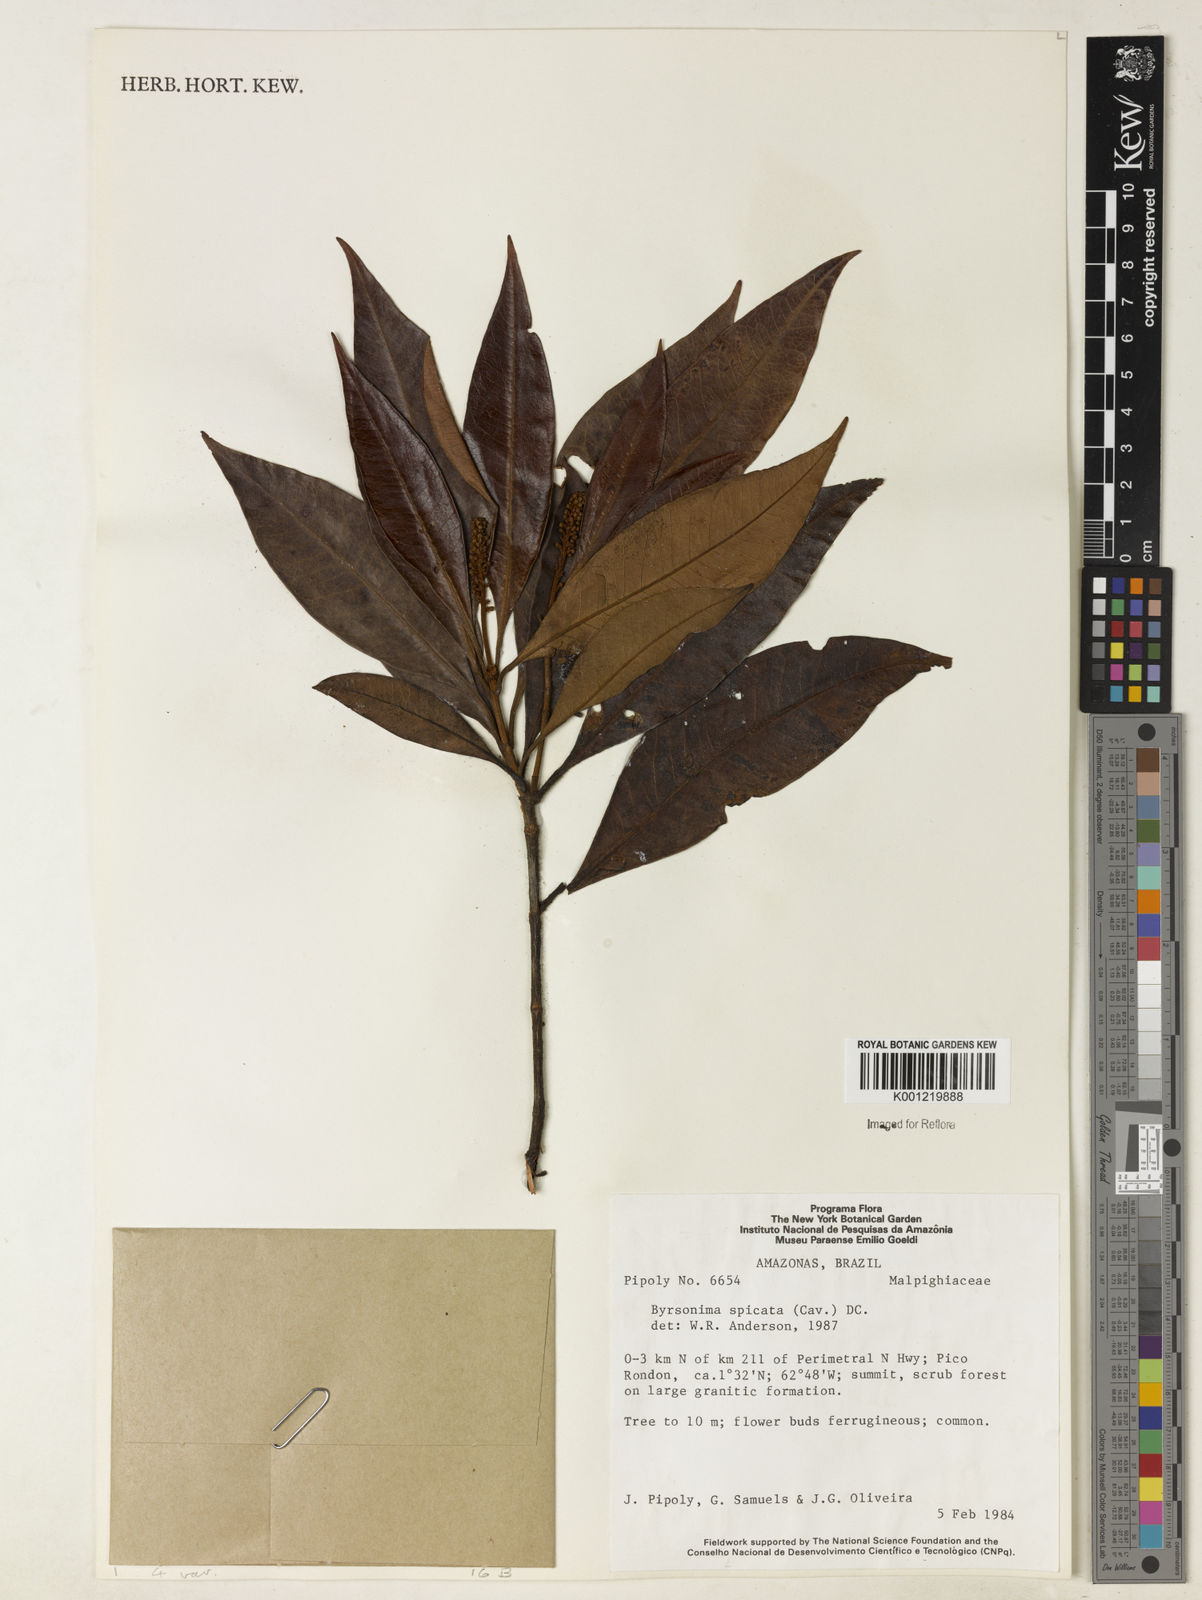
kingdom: Plantae
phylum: Tracheophyta
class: Magnoliopsida
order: Malpighiales
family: Malpighiaceae
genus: Byrsonima
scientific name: Byrsonima spicata
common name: Murixi-bark-tree
